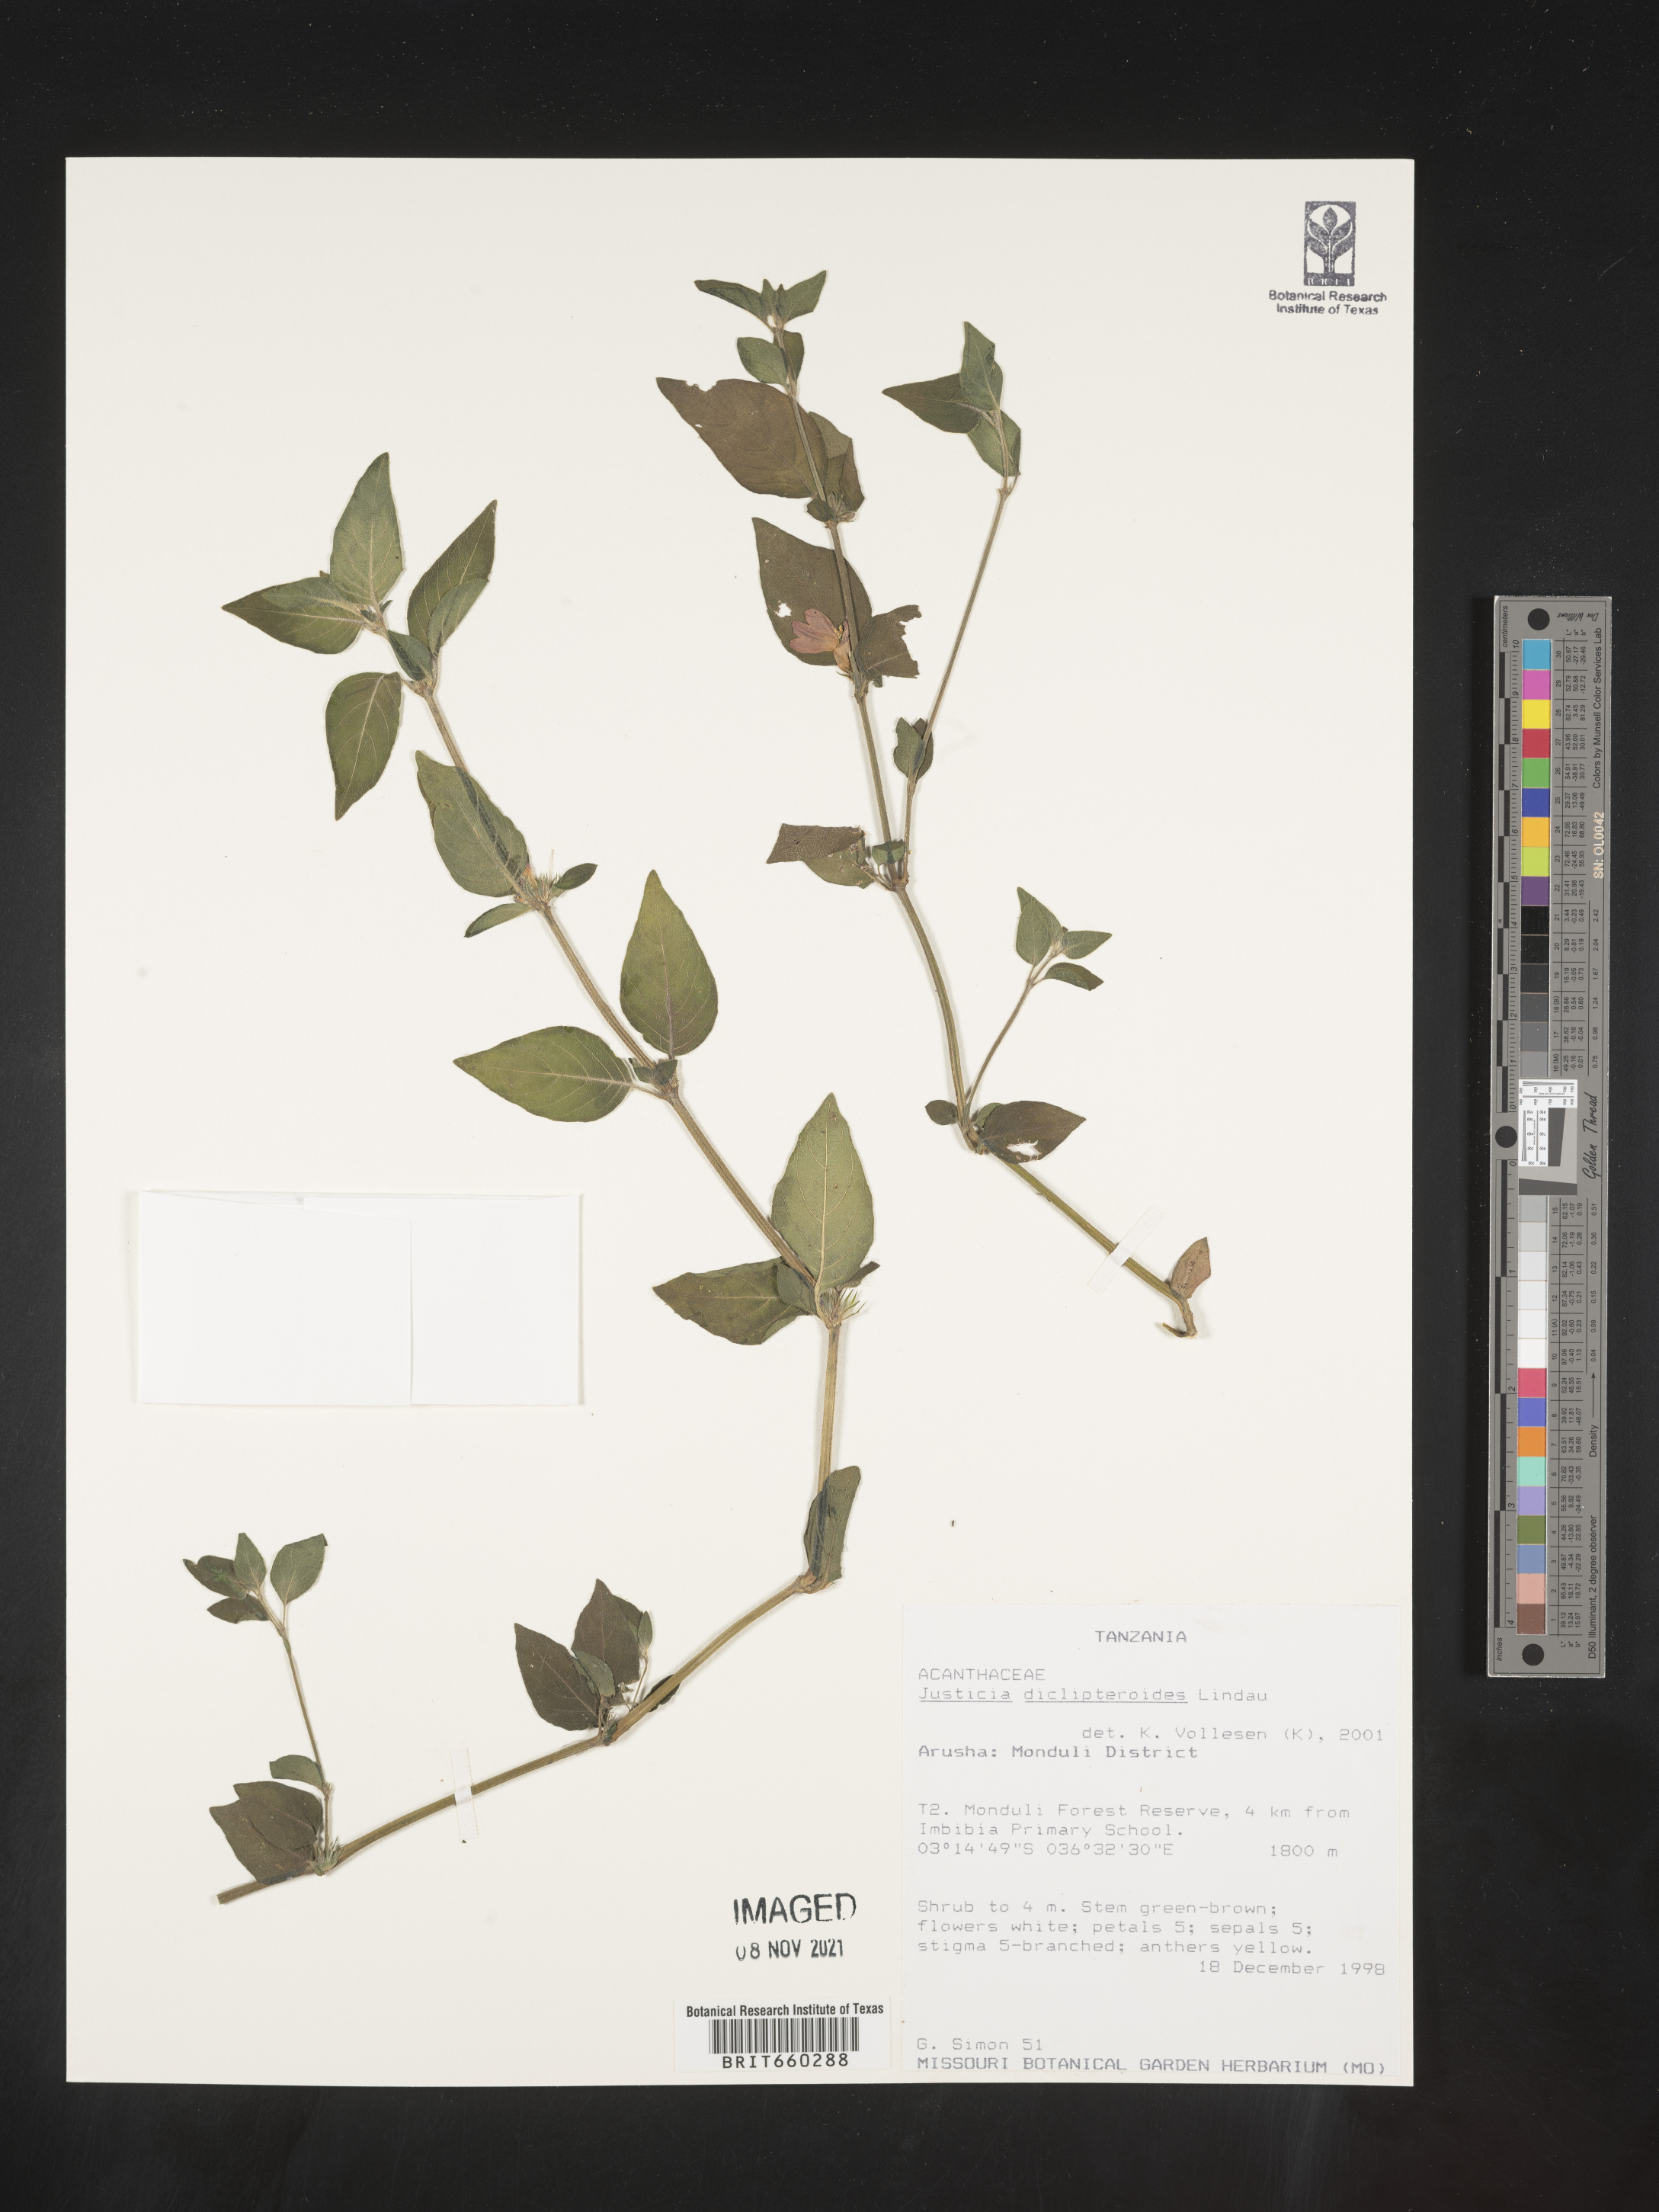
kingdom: Plantae
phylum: Tracheophyta
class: Magnoliopsida
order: Lamiales
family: Acanthaceae
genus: Justicia
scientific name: Justicia
